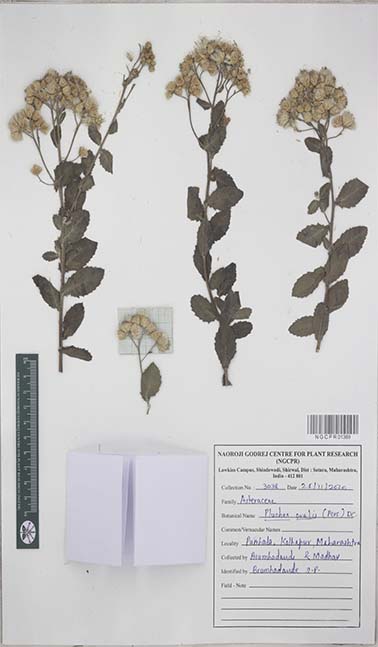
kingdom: Plantae
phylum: Tracheophyta
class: Magnoliopsida
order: Asterales
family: Asteraceae
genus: Pluchea
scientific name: Pluchea ovalis
